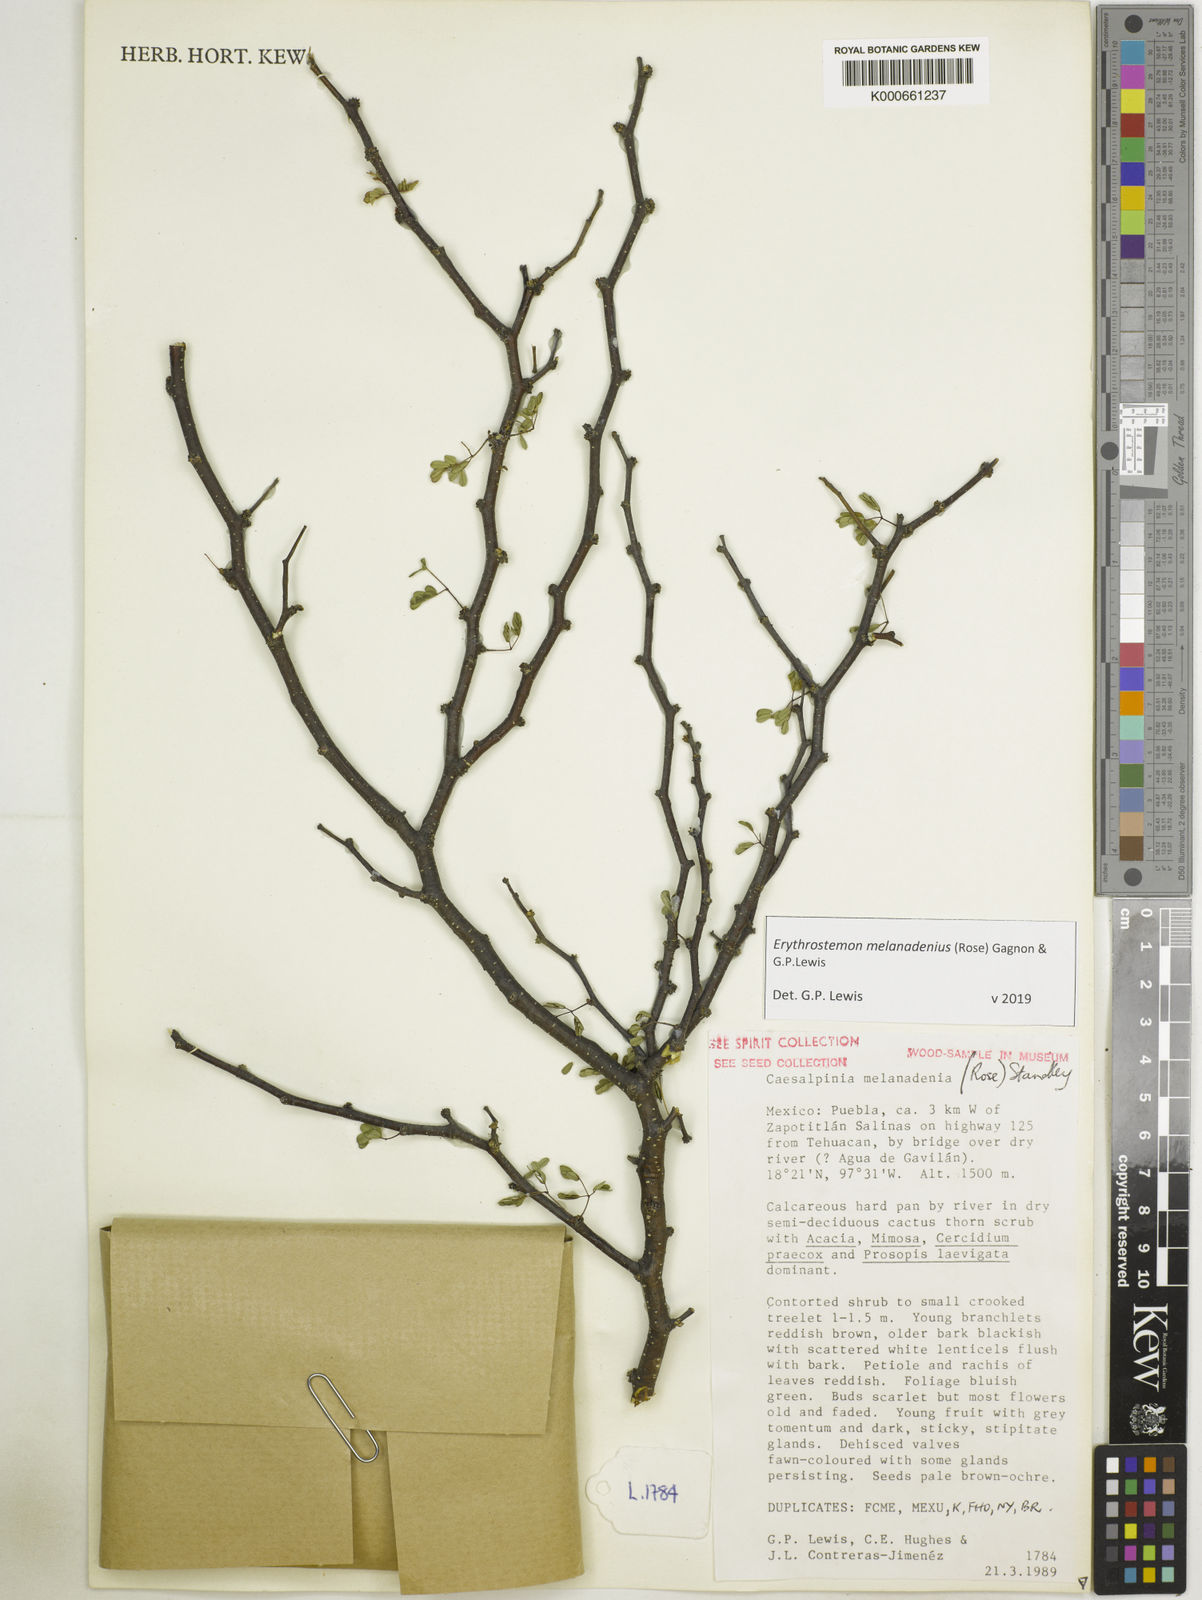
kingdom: Plantae
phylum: Tracheophyta
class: Magnoliopsida
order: Fabales
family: Fabaceae
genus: Erythrostemon
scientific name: Erythrostemon melanadenius
